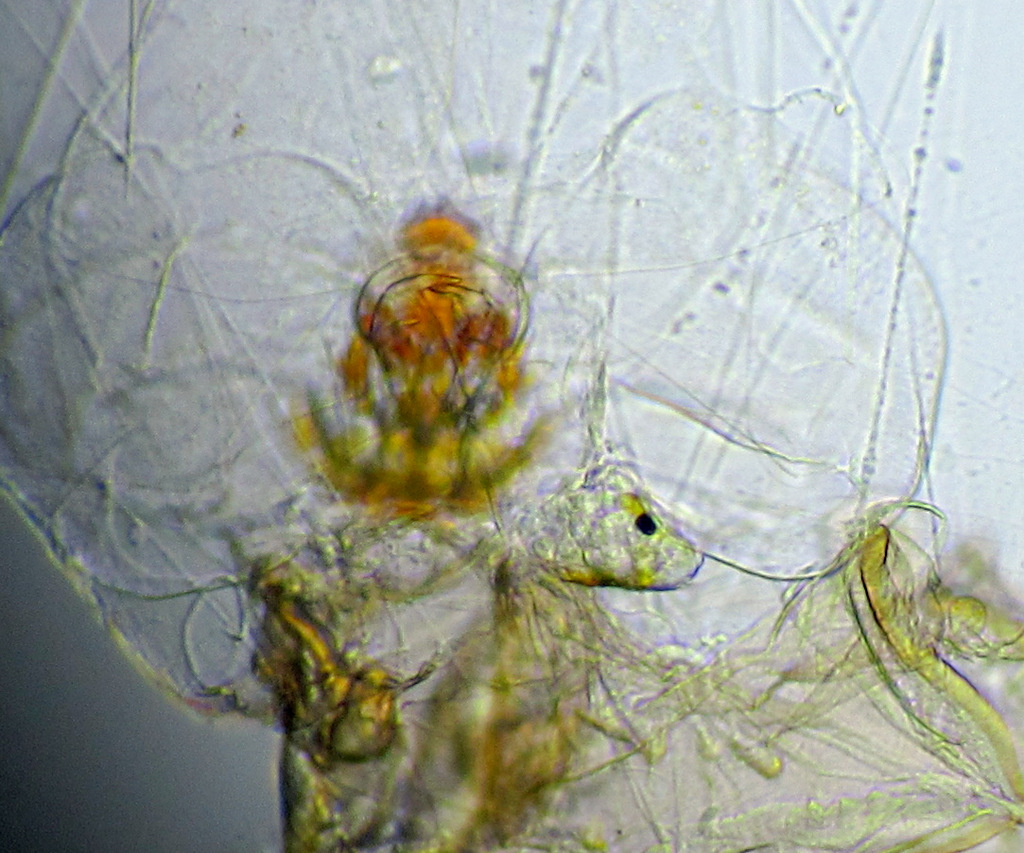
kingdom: Animalia
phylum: Rotifera
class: Eurotatoria
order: Ploima
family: Asplanchnidae
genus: Asplanchna
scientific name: Asplanchna priodonta
